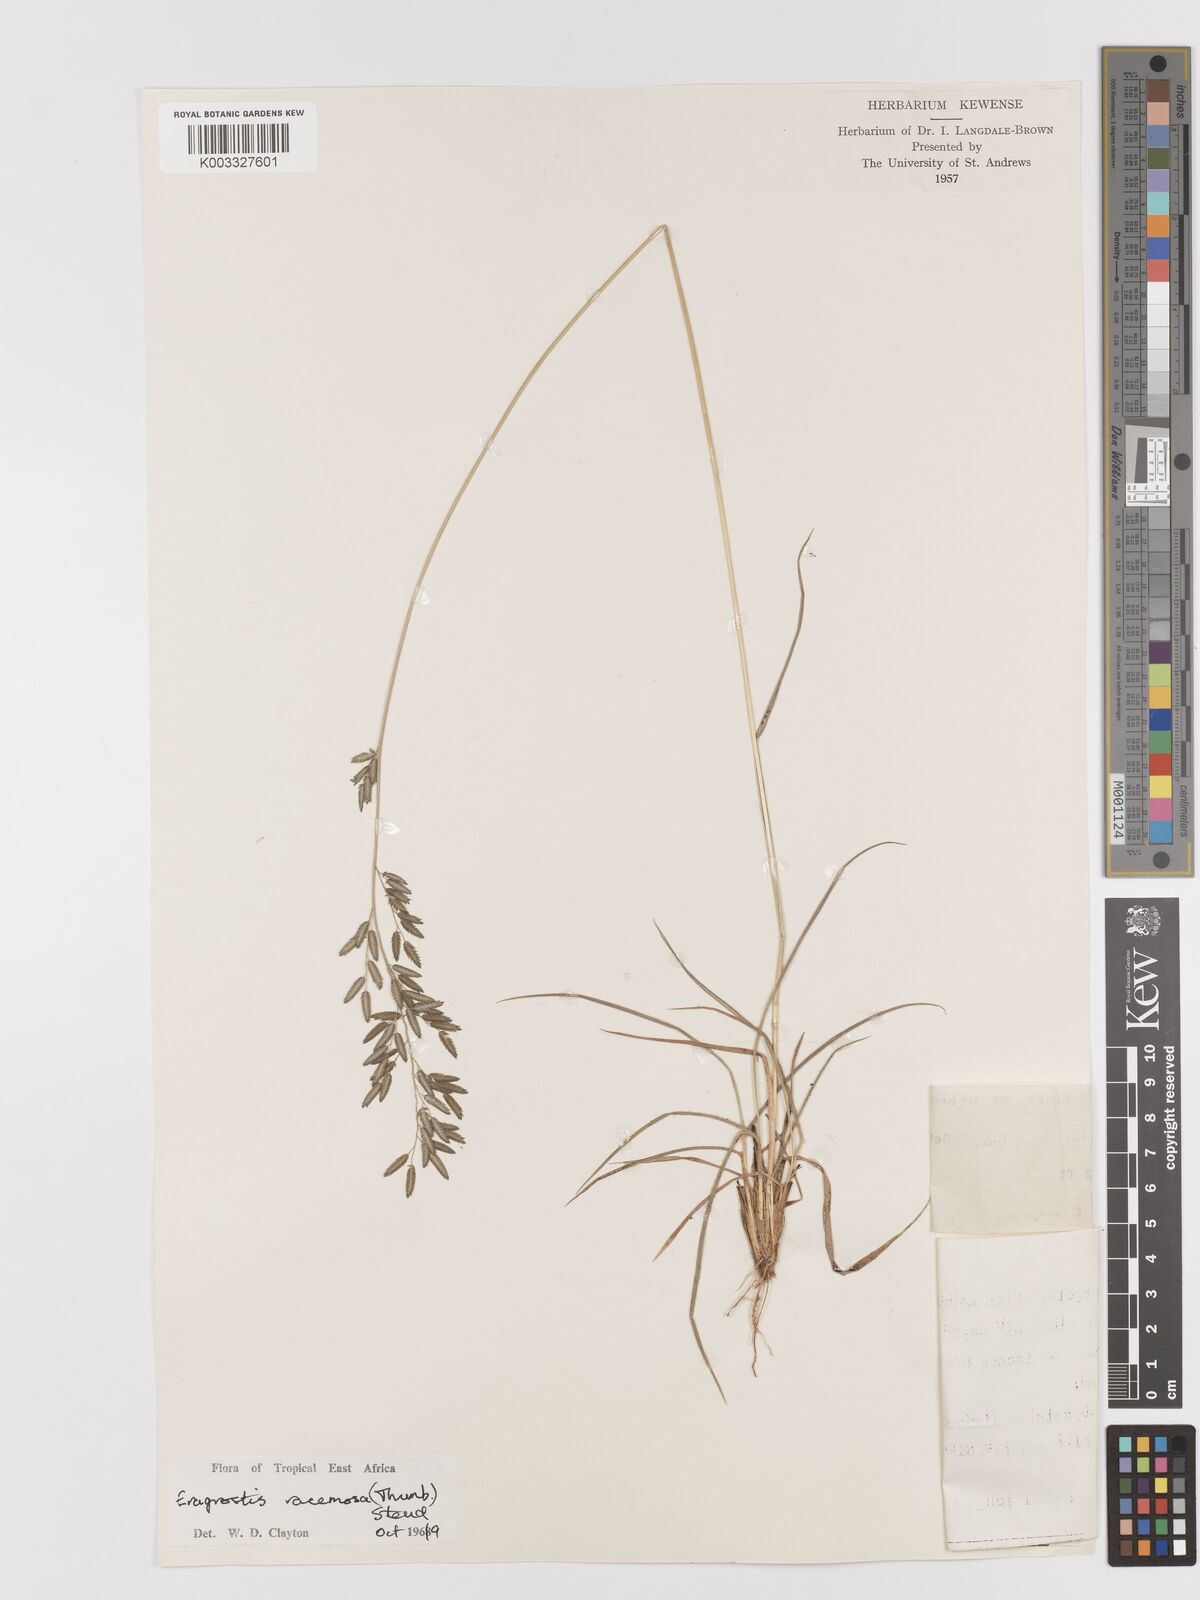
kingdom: Plantae
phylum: Tracheophyta
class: Liliopsida
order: Poales
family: Poaceae
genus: Eragrostis
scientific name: Eragrostis racemosa
